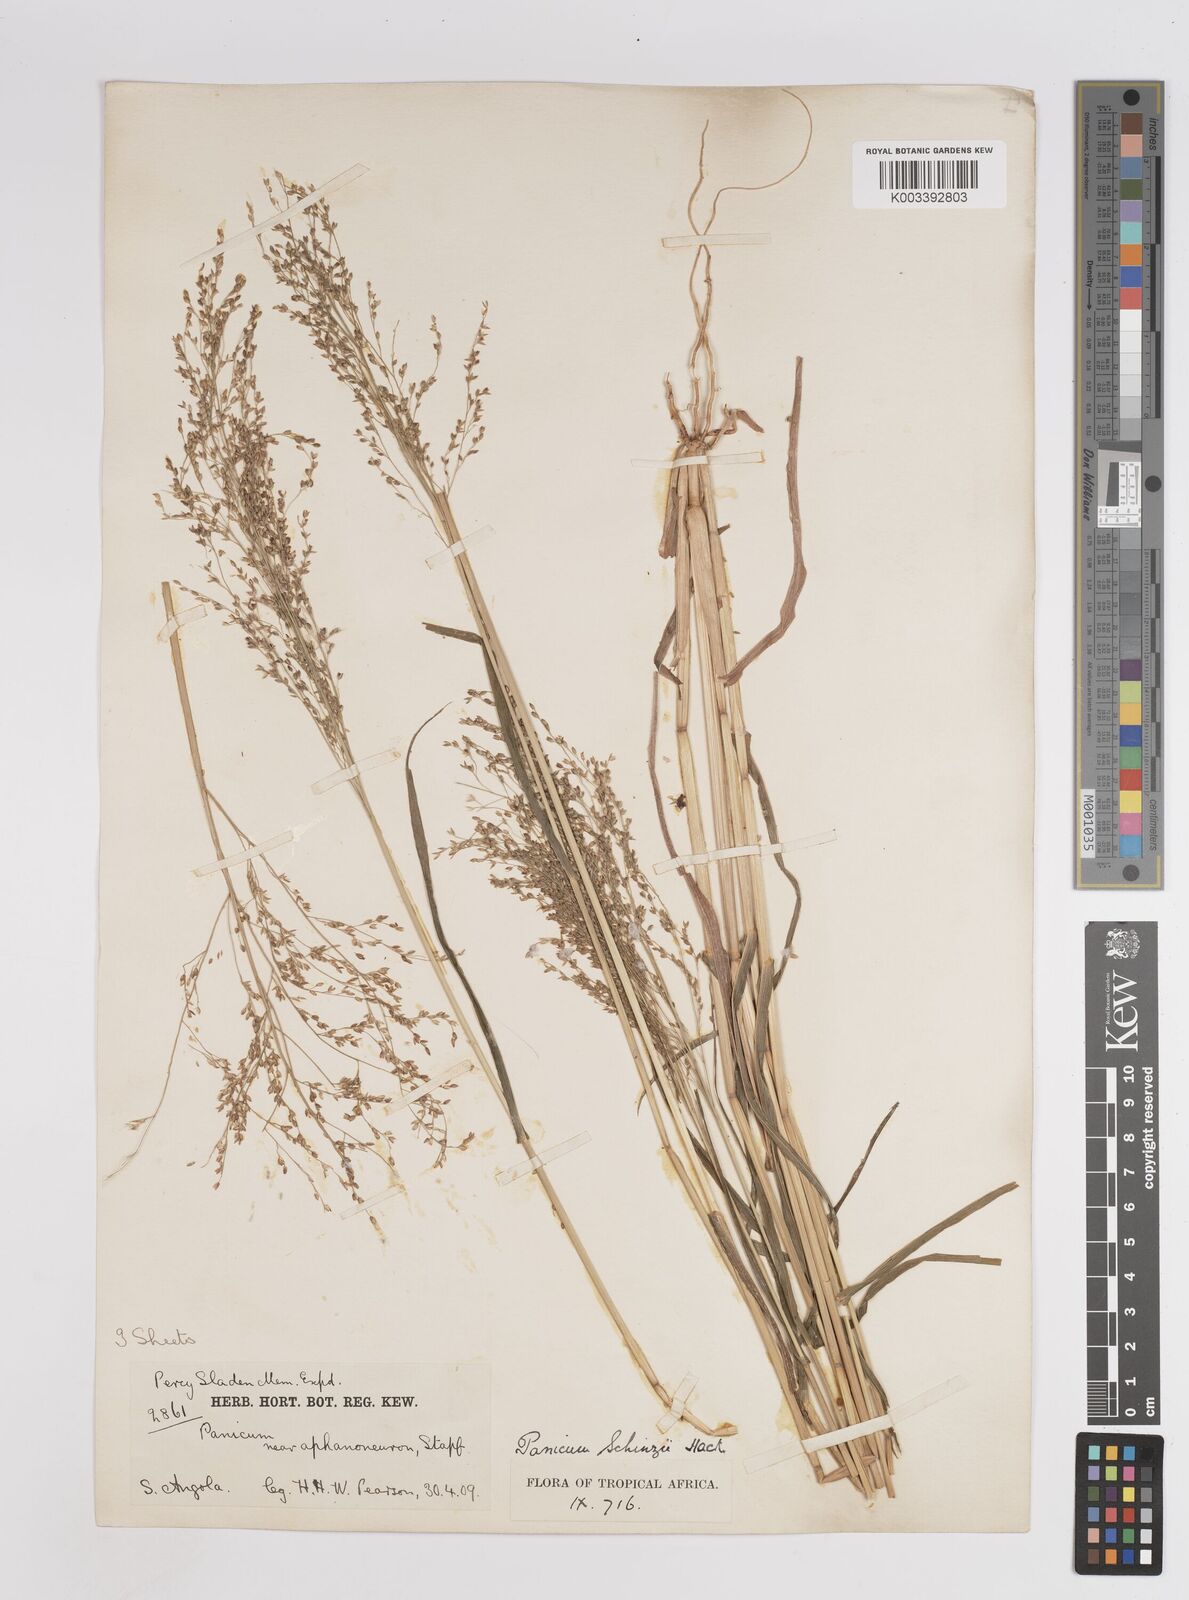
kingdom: Plantae
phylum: Tracheophyta
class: Liliopsida
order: Poales
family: Poaceae
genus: Panicum
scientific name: Panicum schinzii
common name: Sweet grass
